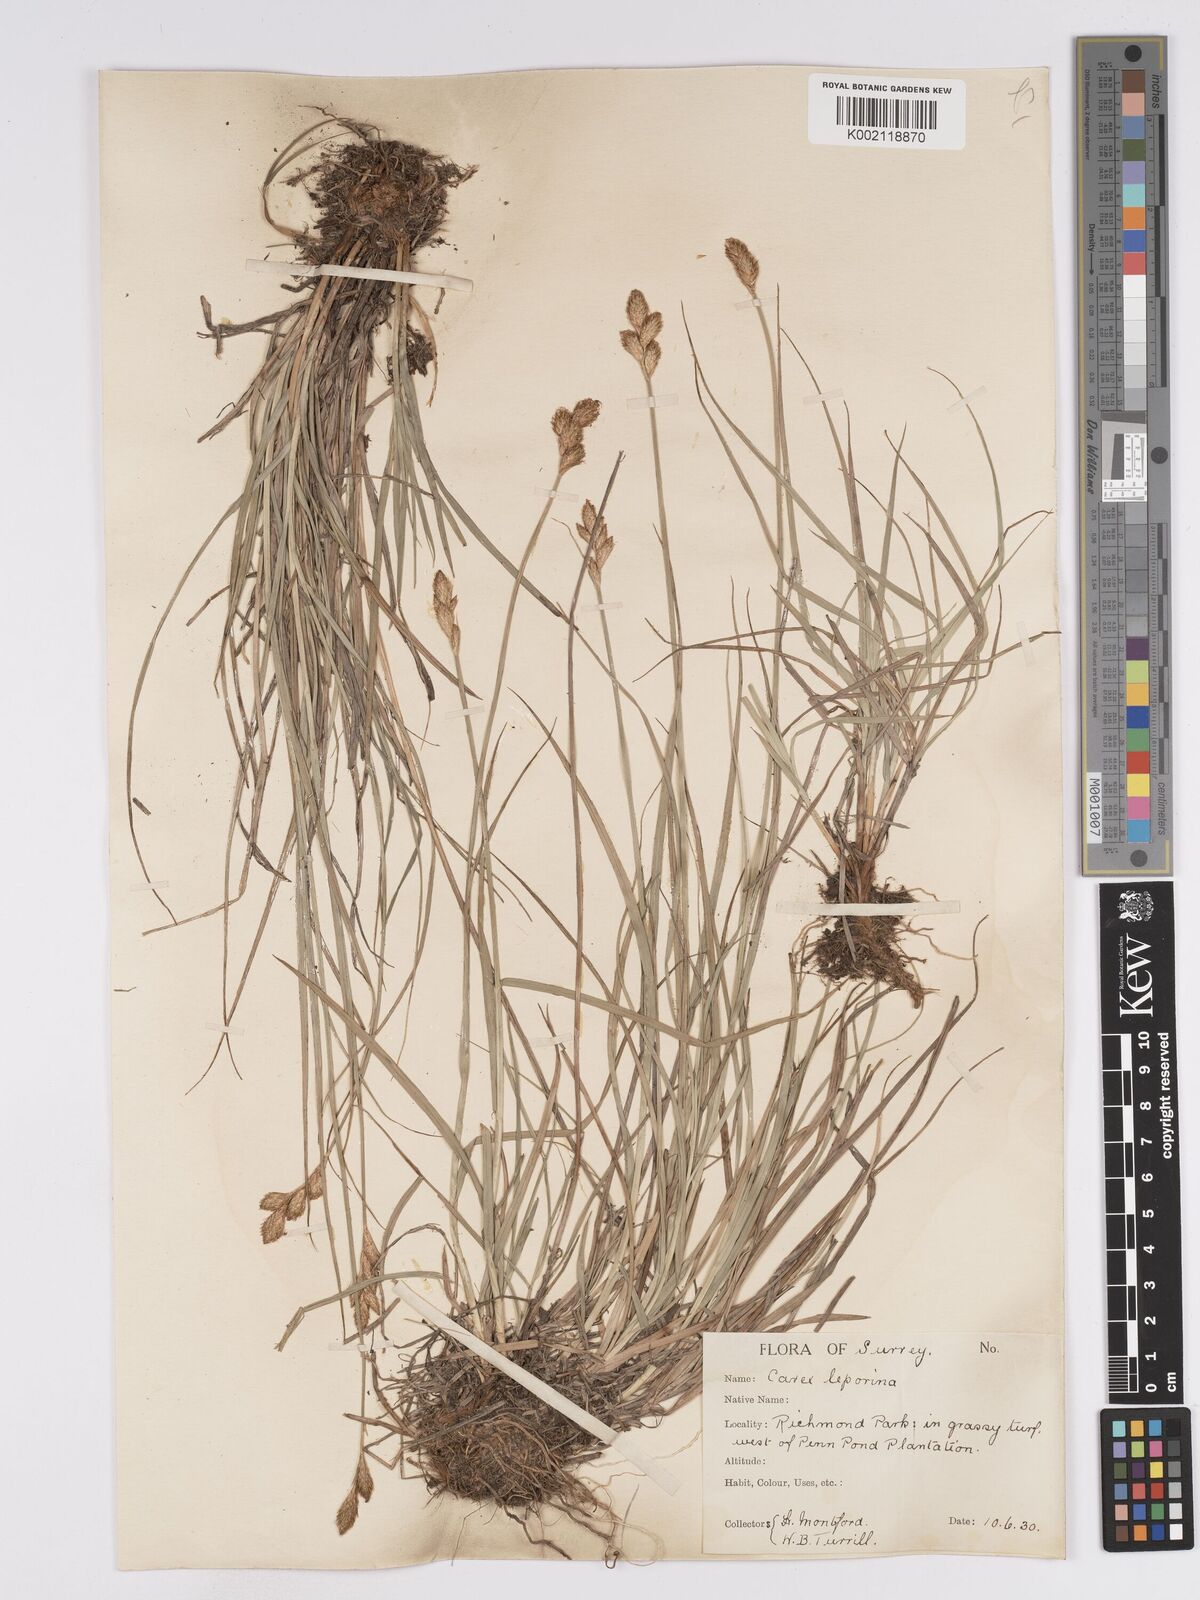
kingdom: Plantae
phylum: Tracheophyta
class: Liliopsida
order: Poales
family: Cyperaceae
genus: Carex
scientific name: Carex leporina
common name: Oval sedge
